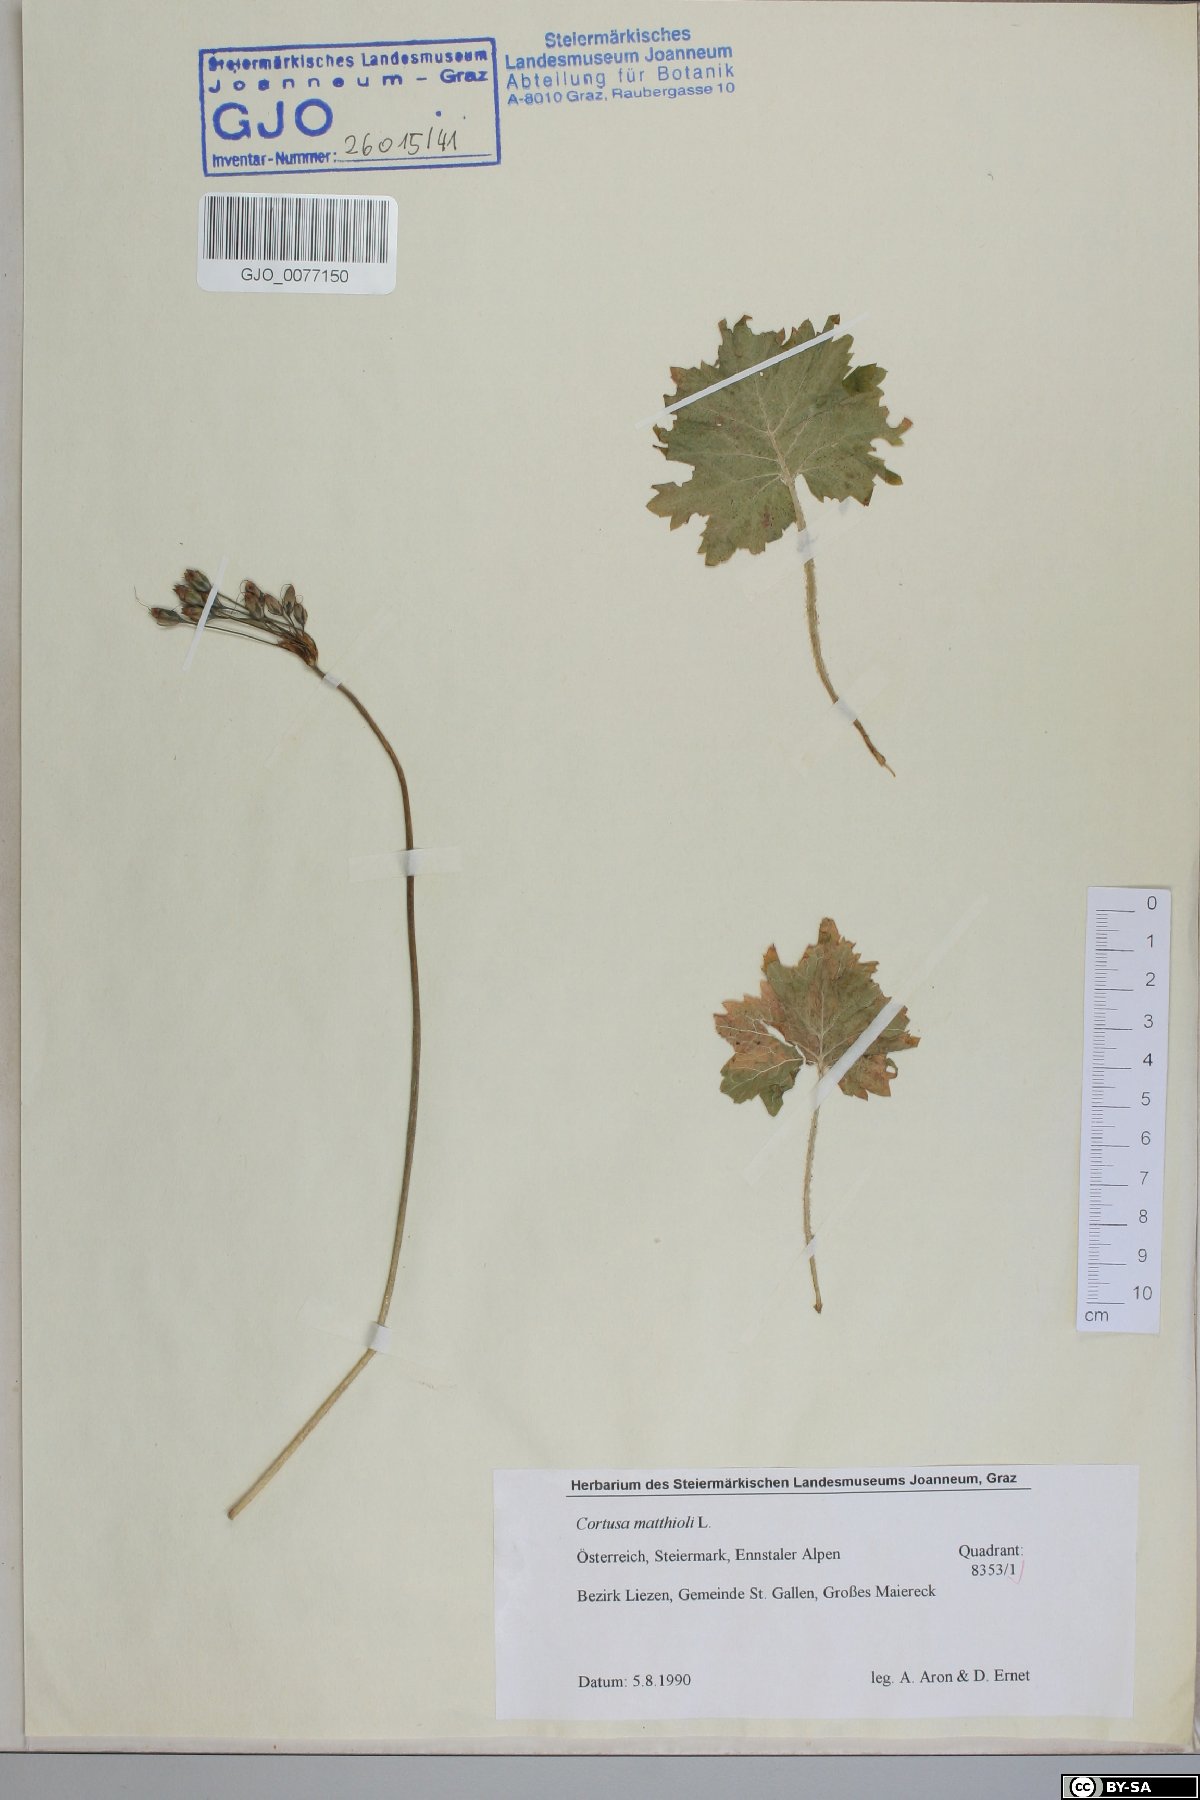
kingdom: Plantae
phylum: Tracheophyta
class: Magnoliopsida
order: Ericales
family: Primulaceae
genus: Primula
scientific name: Primula matthioli
